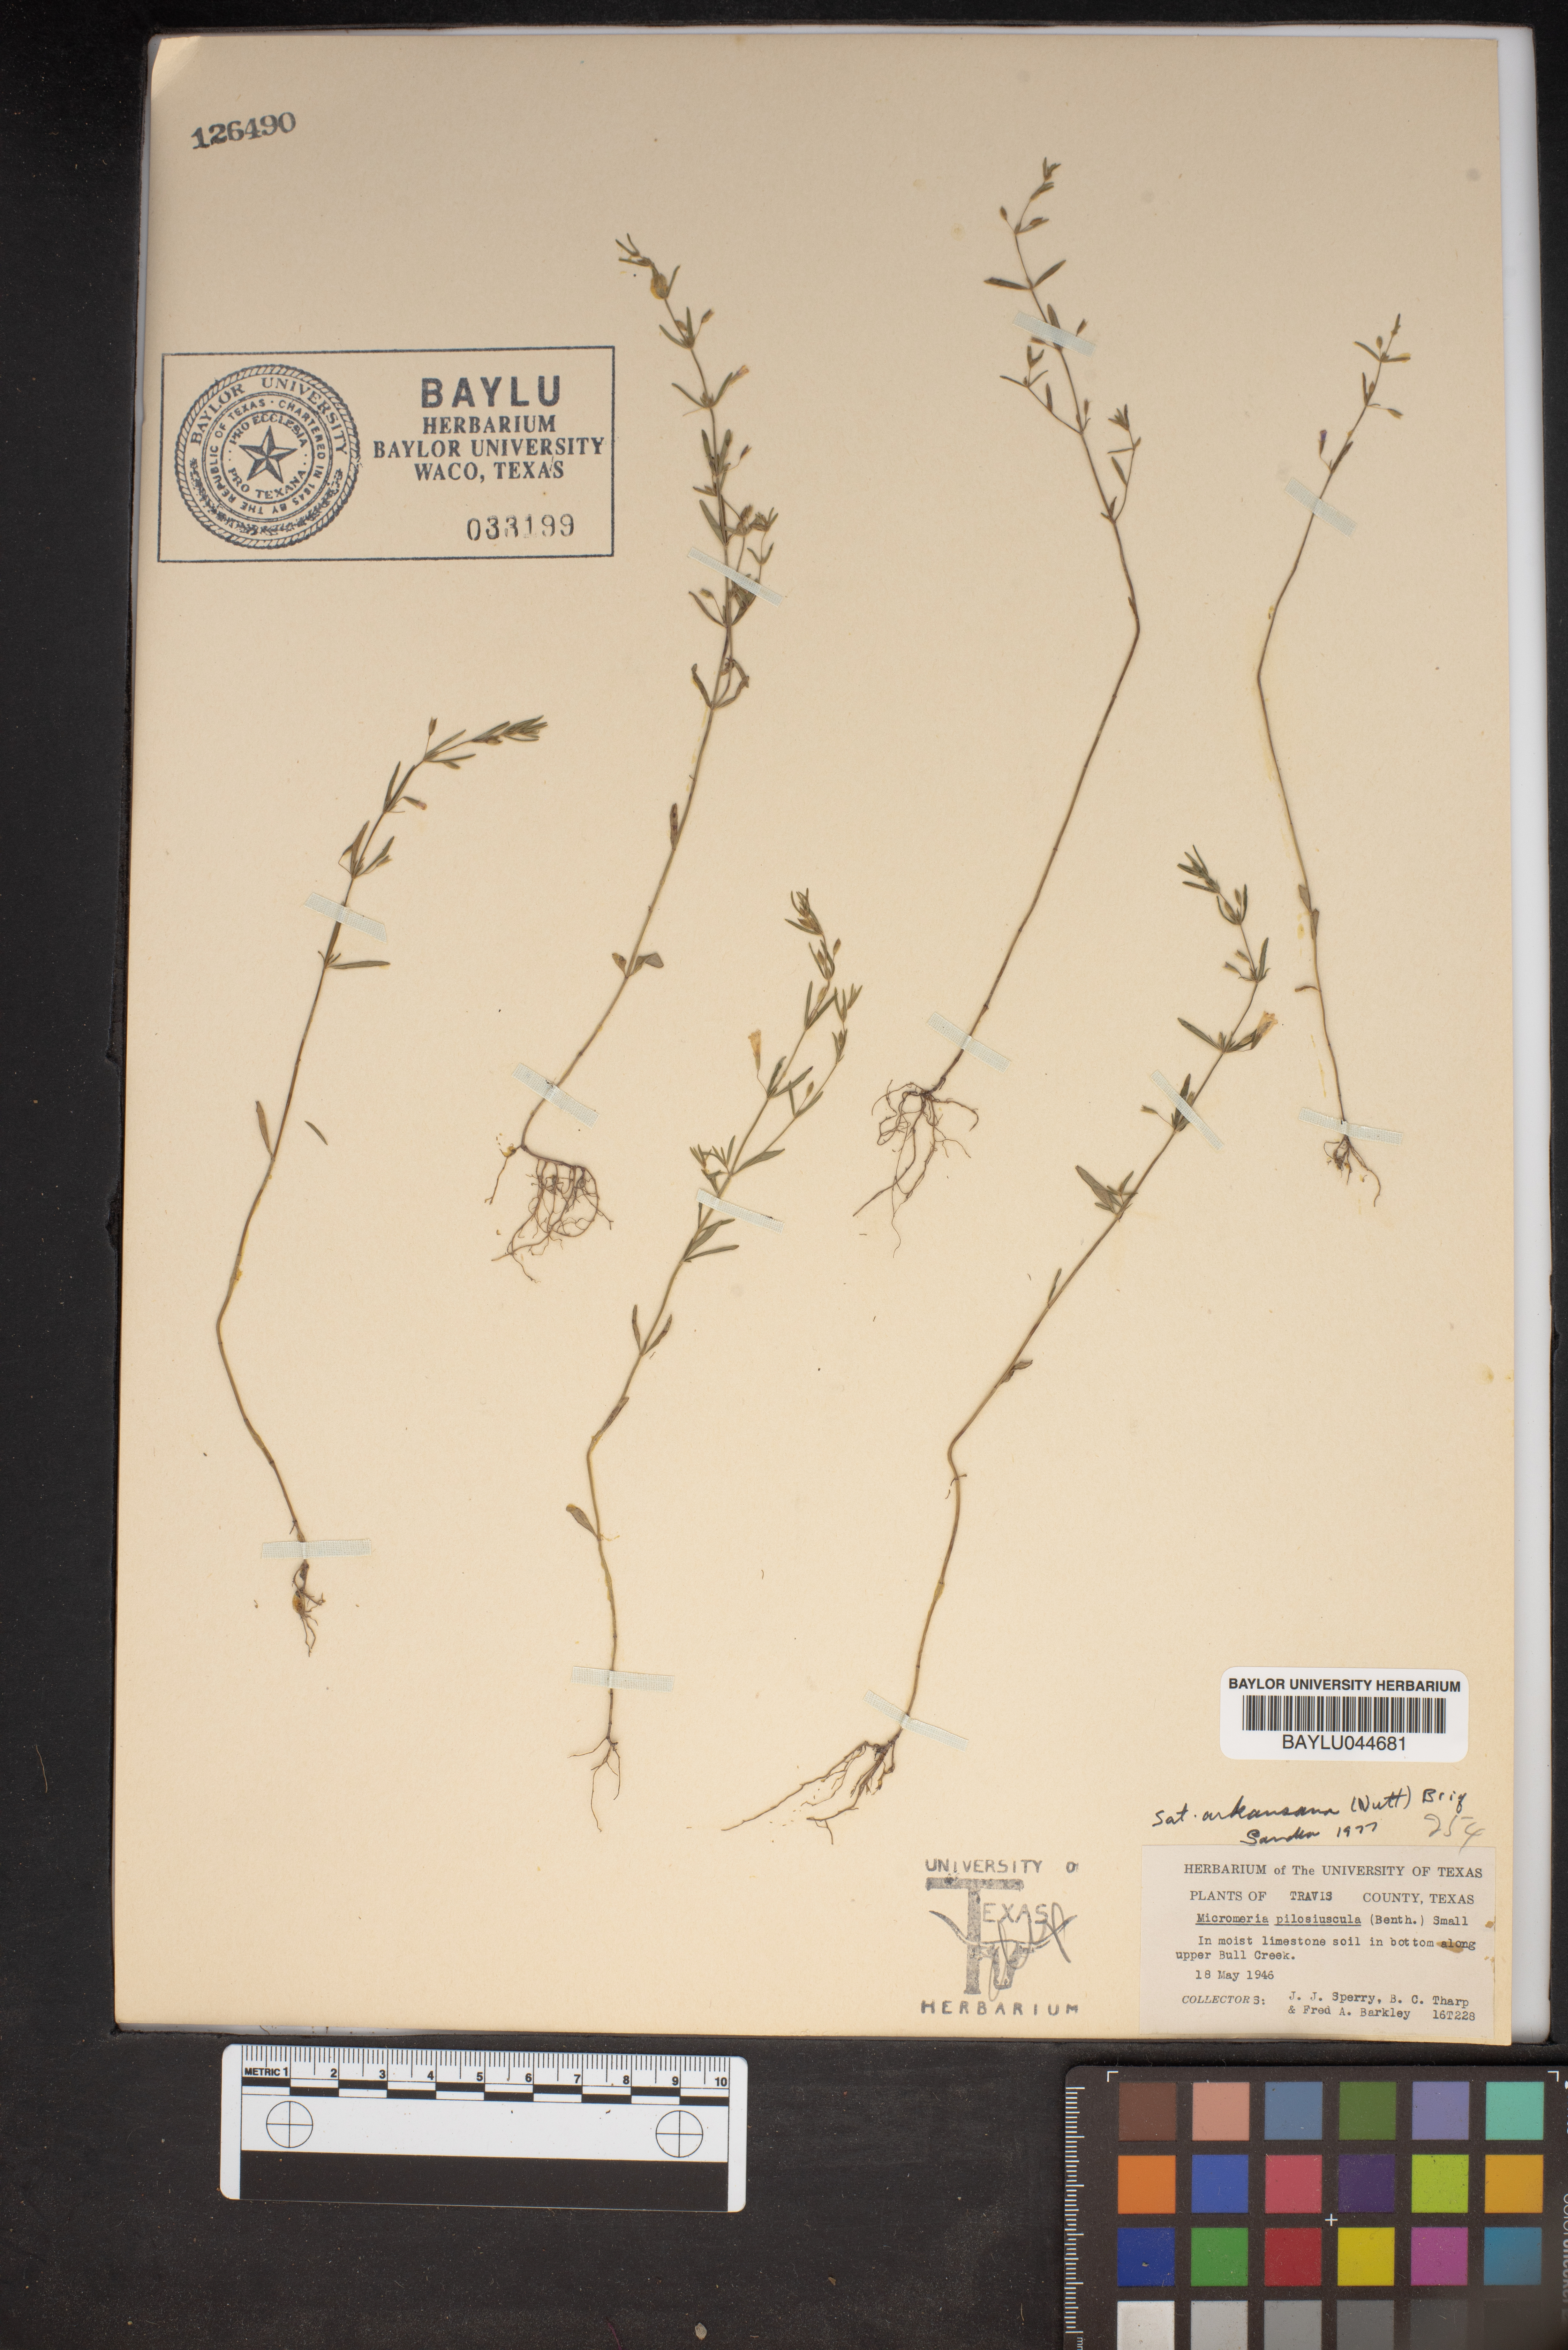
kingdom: Plantae
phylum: Tracheophyta
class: Magnoliopsida
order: Lamiales
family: Lamiaceae
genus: Clinopodium
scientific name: Clinopodium brownei
